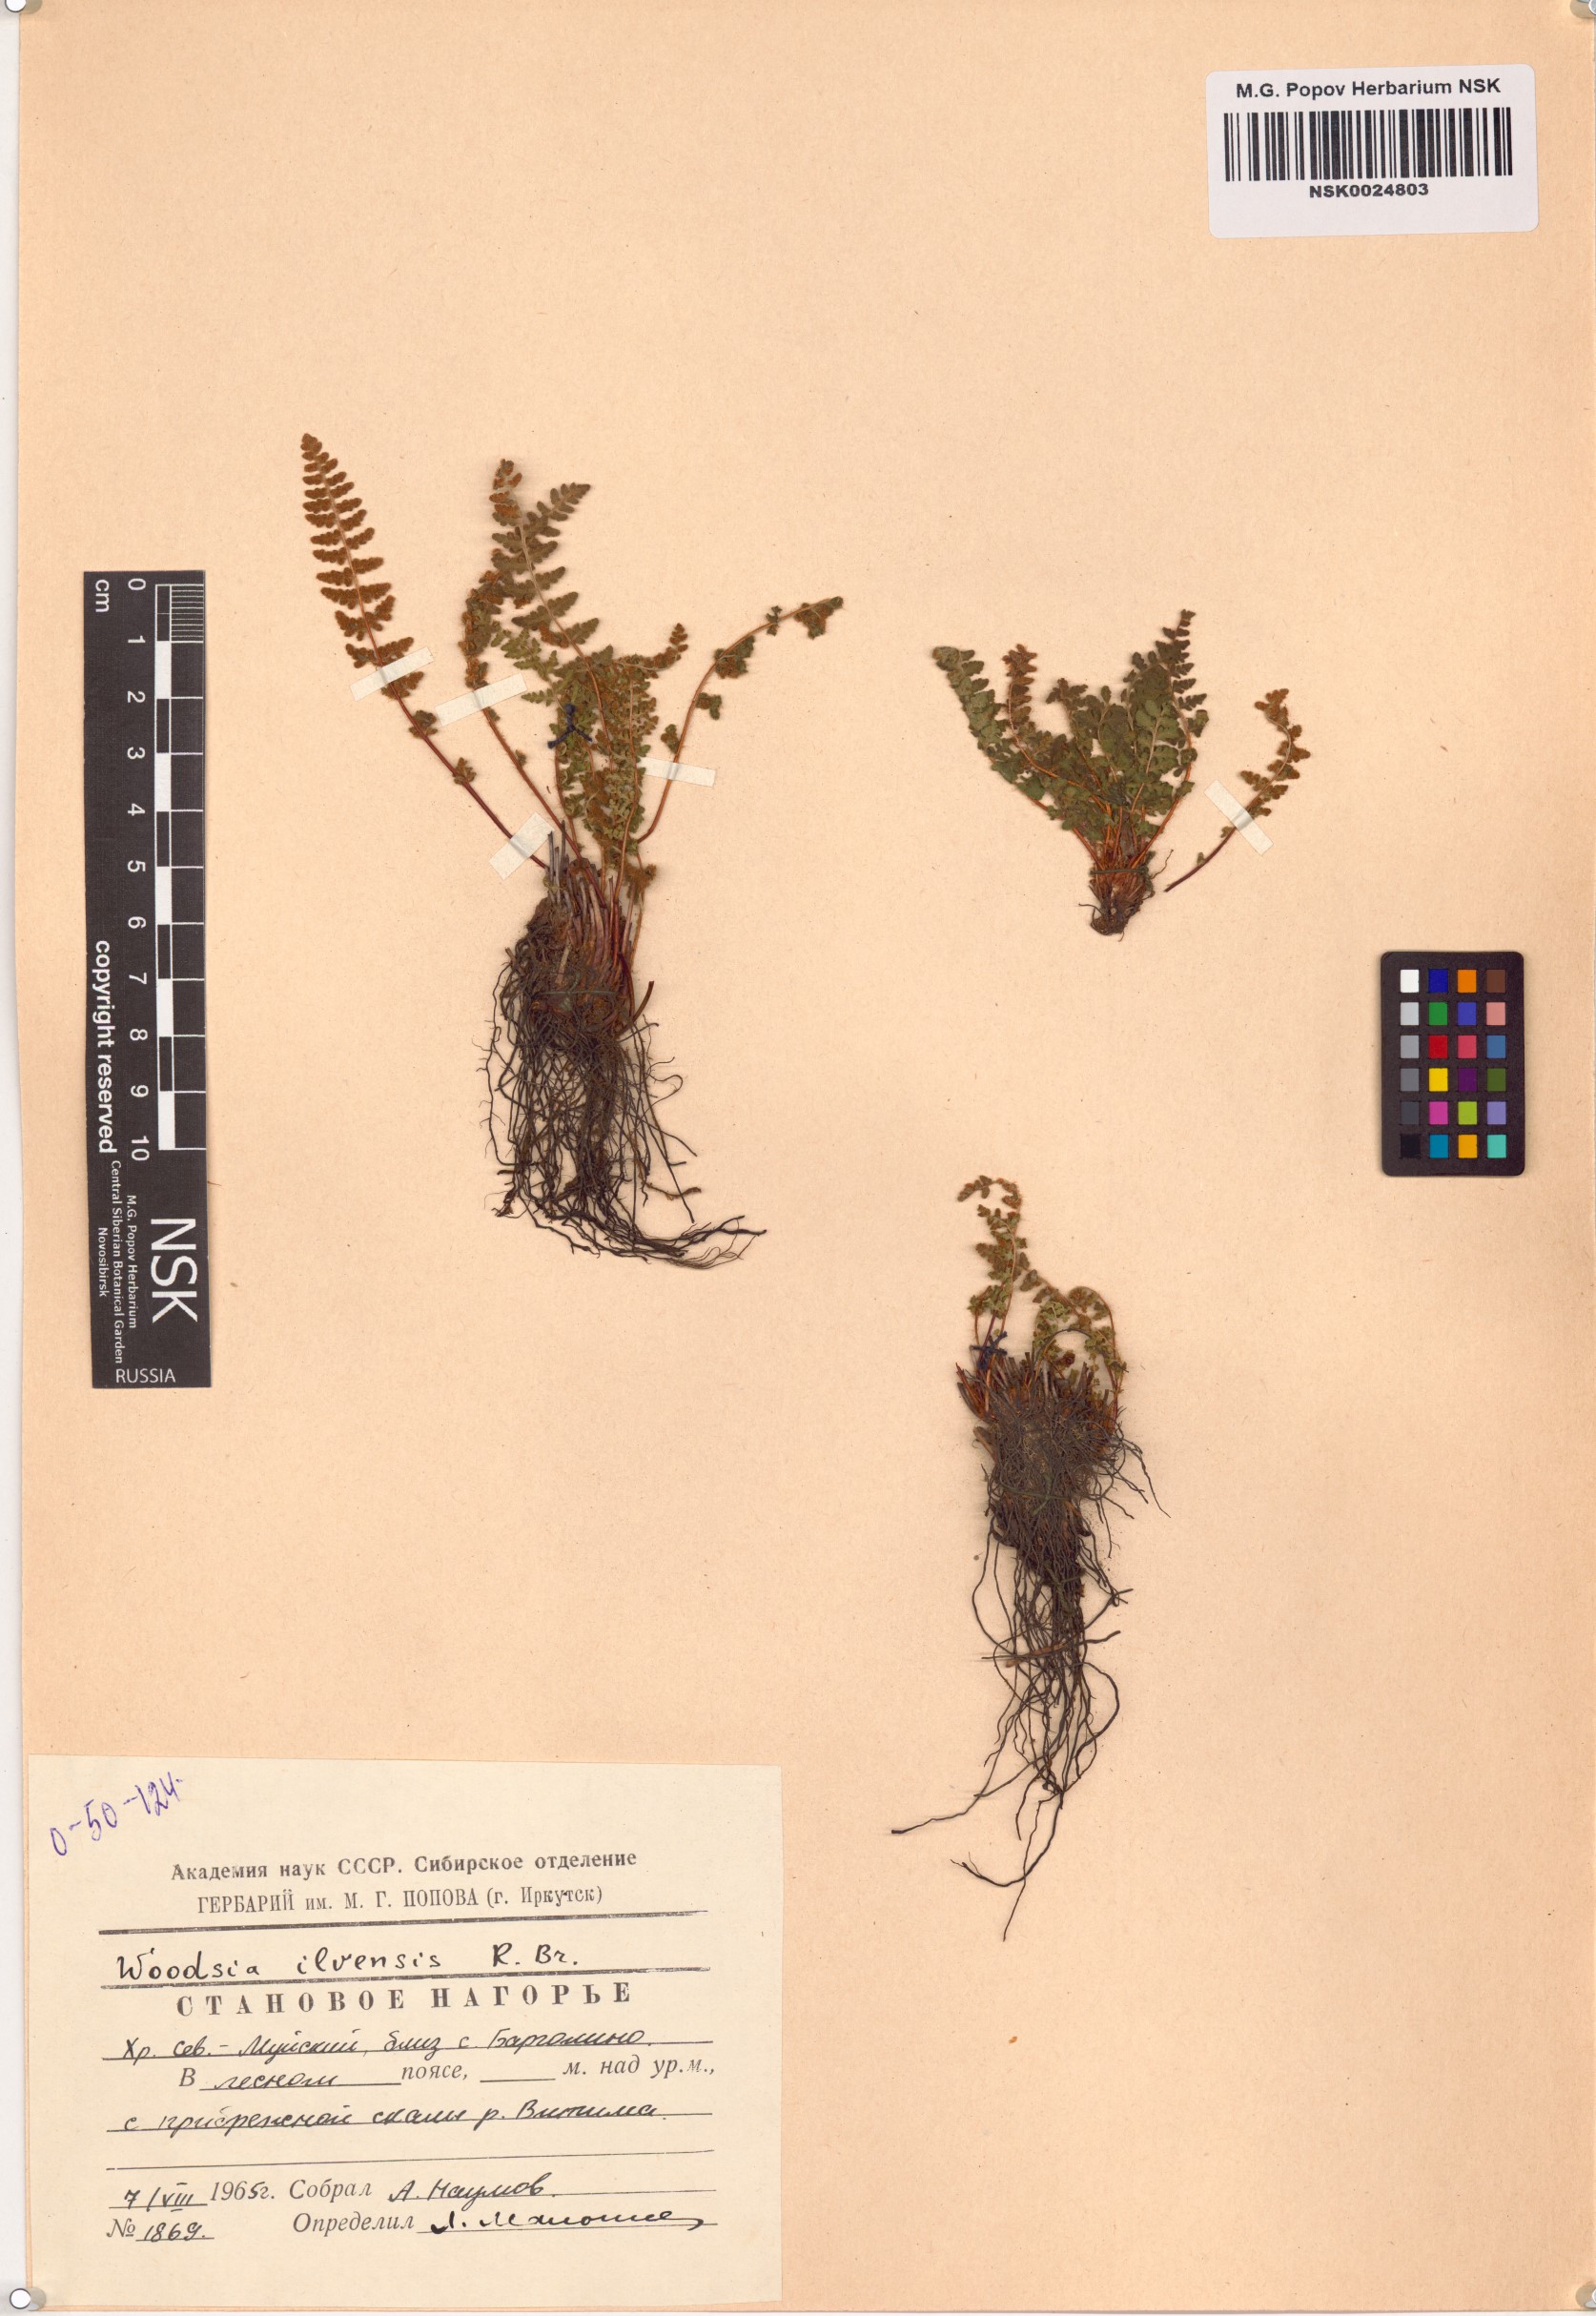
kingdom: Plantae
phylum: Tracheophyta
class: Polypodiopsida
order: Polypodiales
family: Woodsiaceae
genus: Woodsia
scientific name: Woodsia ilvensis
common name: Fragrant woodsia
